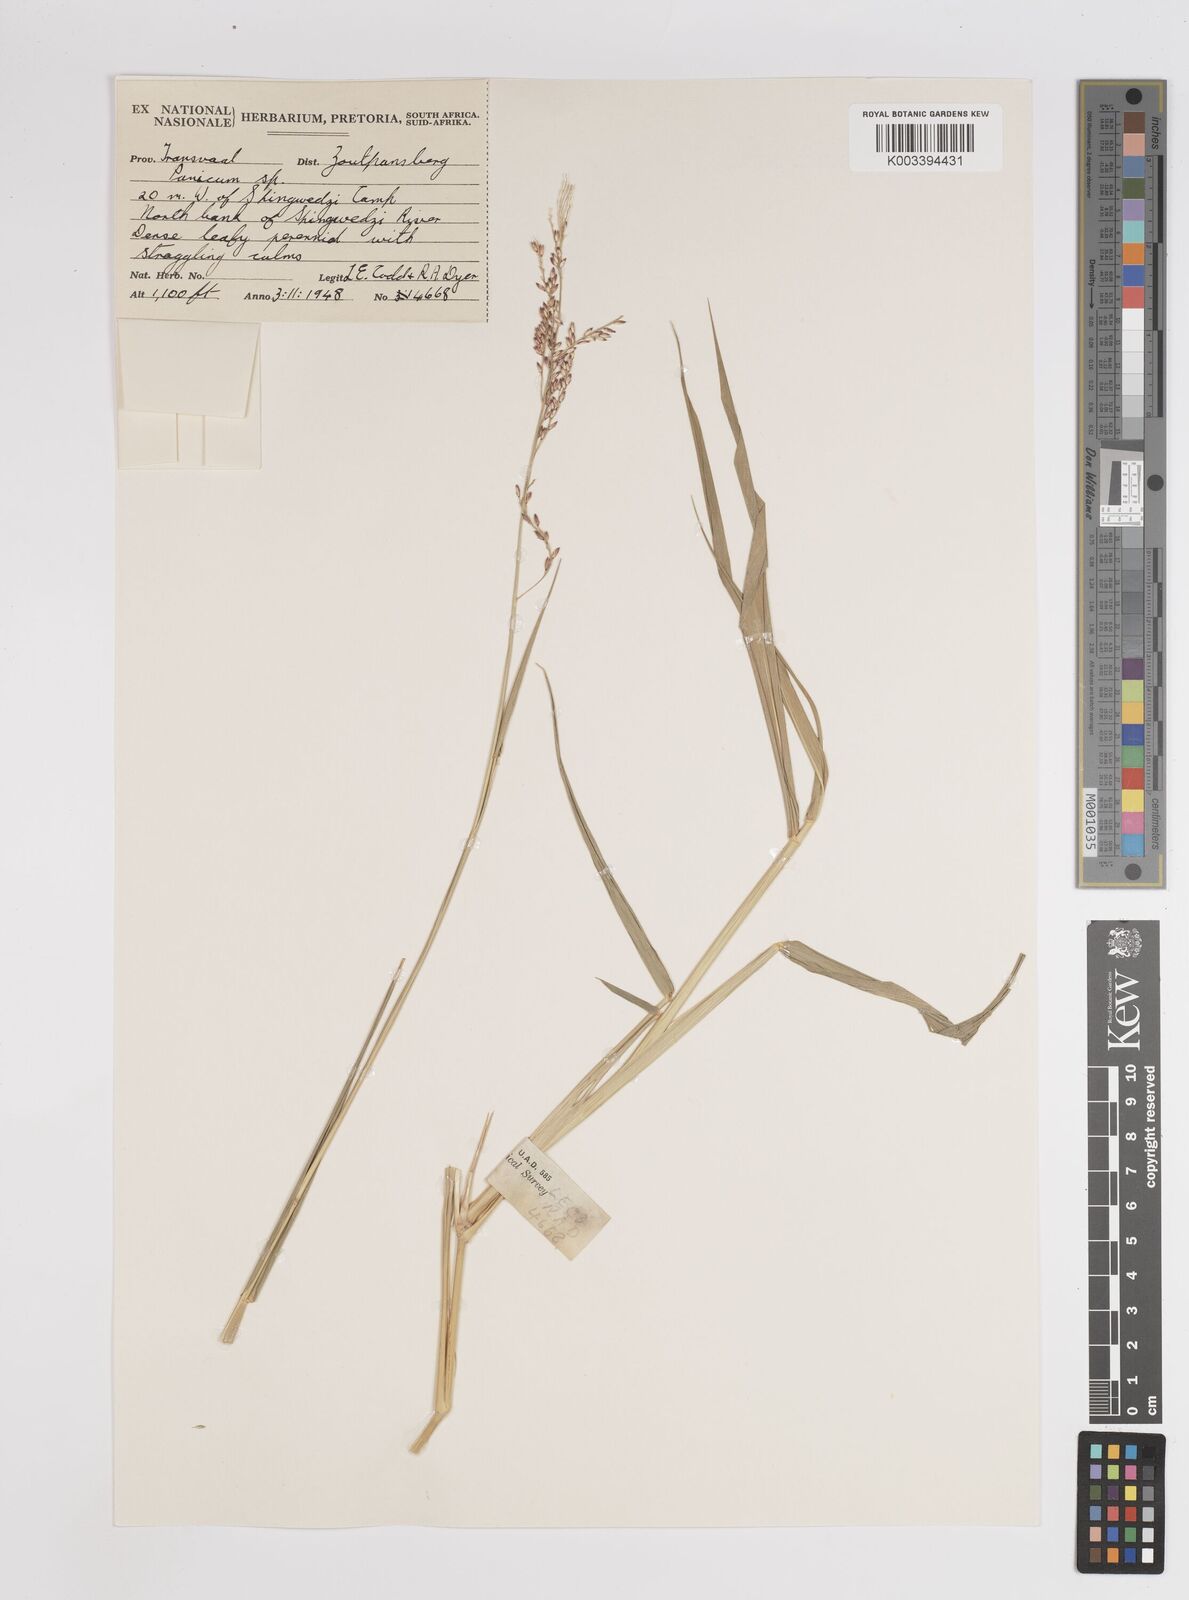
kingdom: Plantae
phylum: Tracheophyta
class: Liliopsida
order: Poales
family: Poaceae
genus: Panicum
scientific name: Panicum
